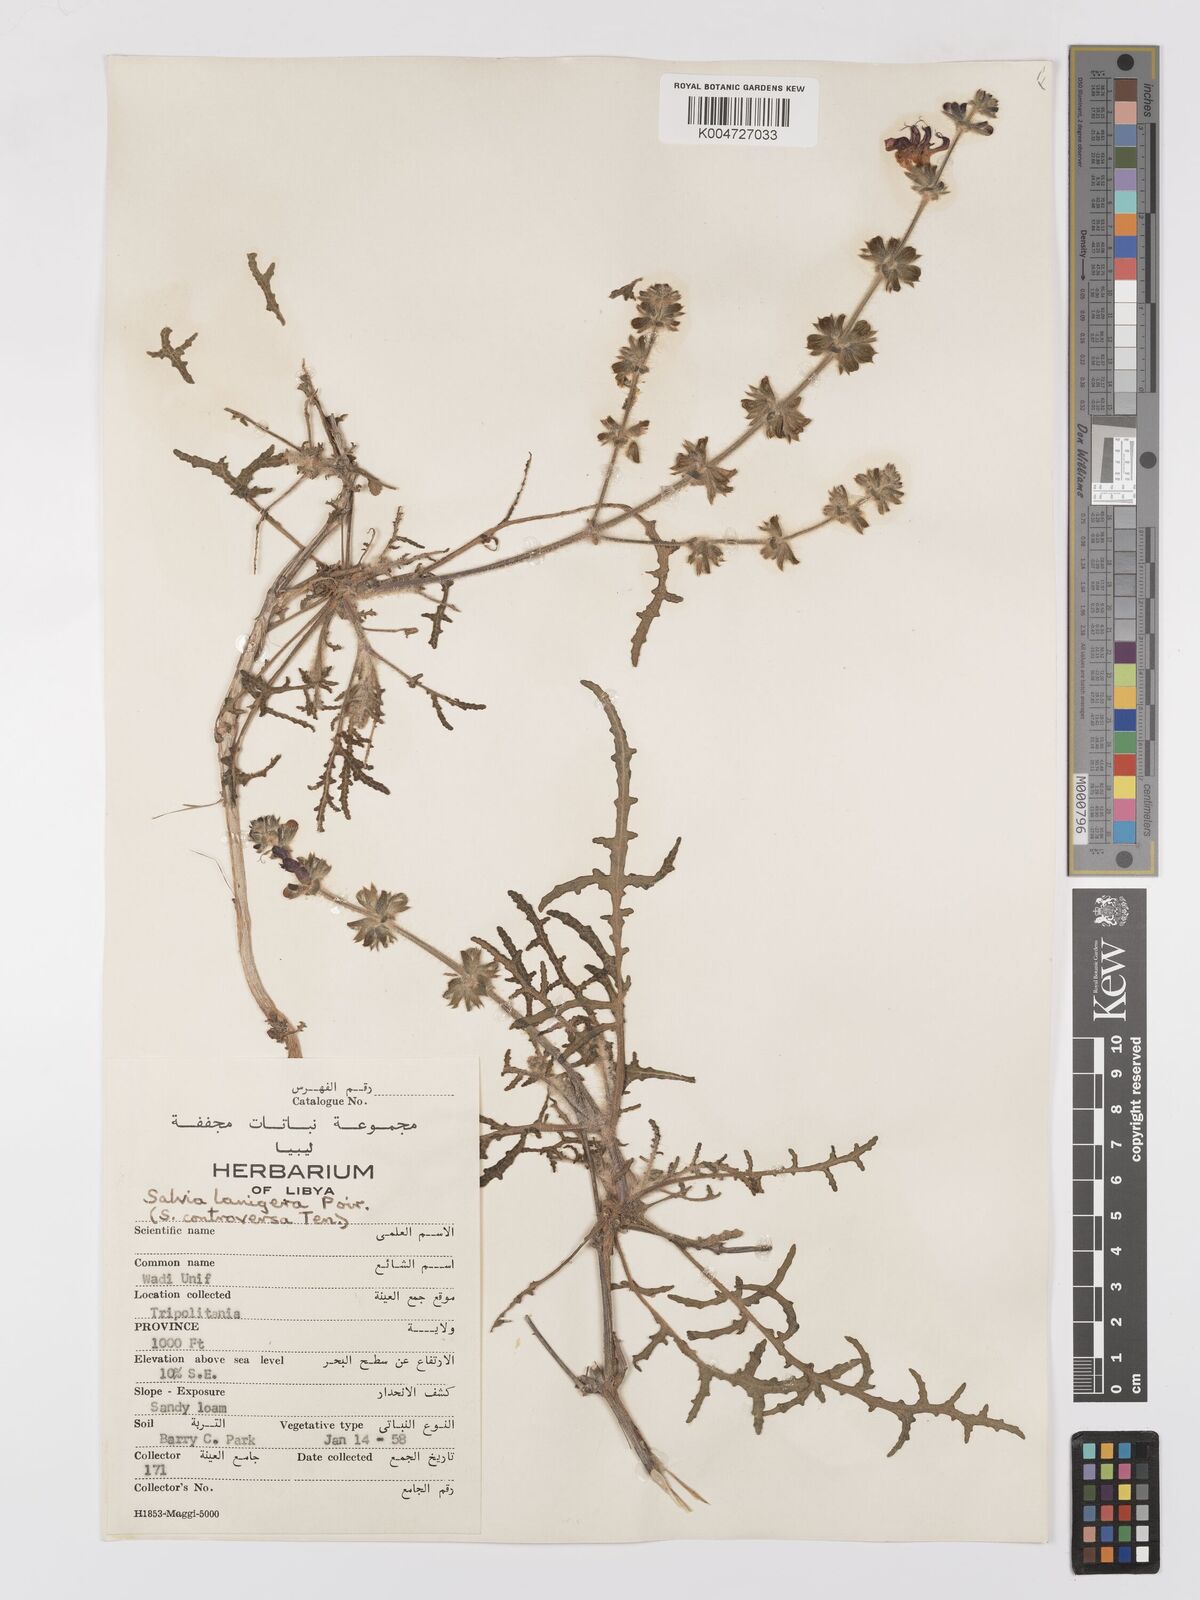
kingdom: Plantae
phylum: Tracheophyta
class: Magnoliopsida
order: Lamiales
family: Lamiaceae
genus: Salvia
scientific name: Salvia lanigera
